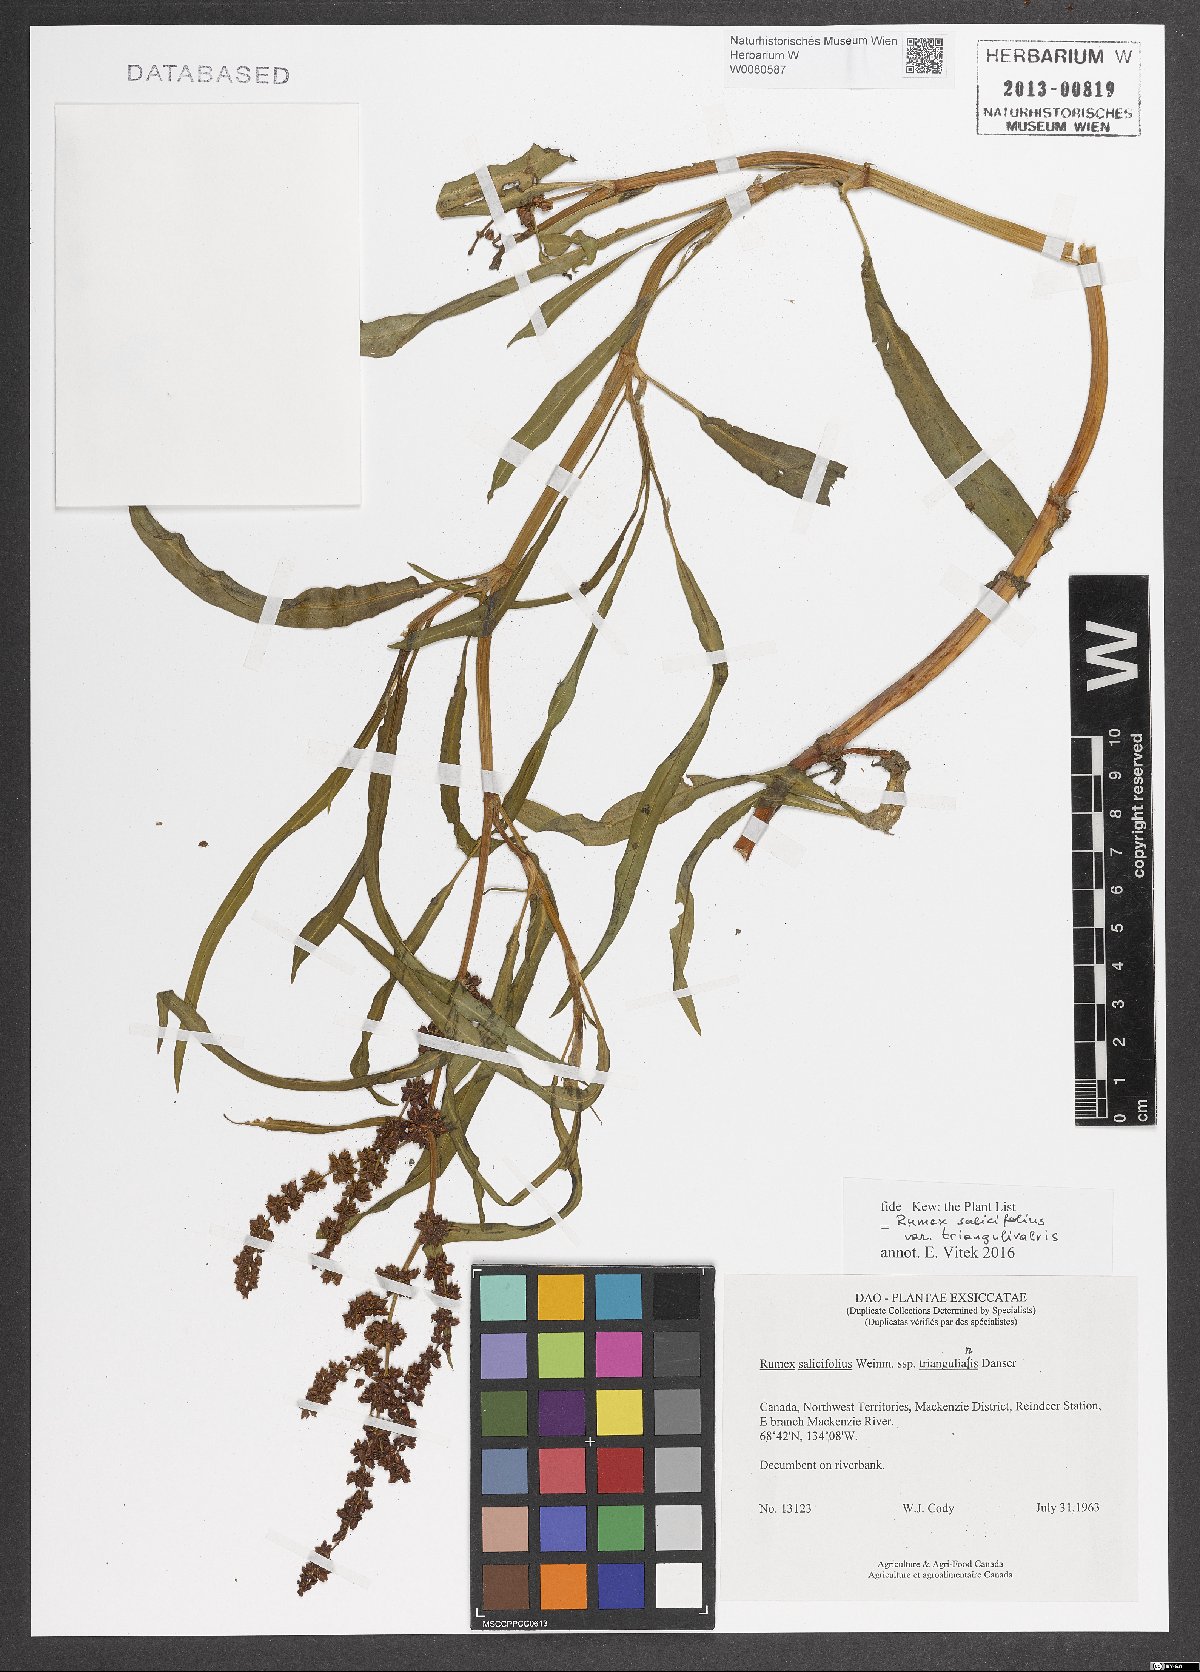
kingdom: Plantae
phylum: Tracheophyta
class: Magnoliopsida
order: Caryophyllales
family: Polygonaceae
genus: Rumex
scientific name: Rumex triangulivalvis
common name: Triangular-valve dock
